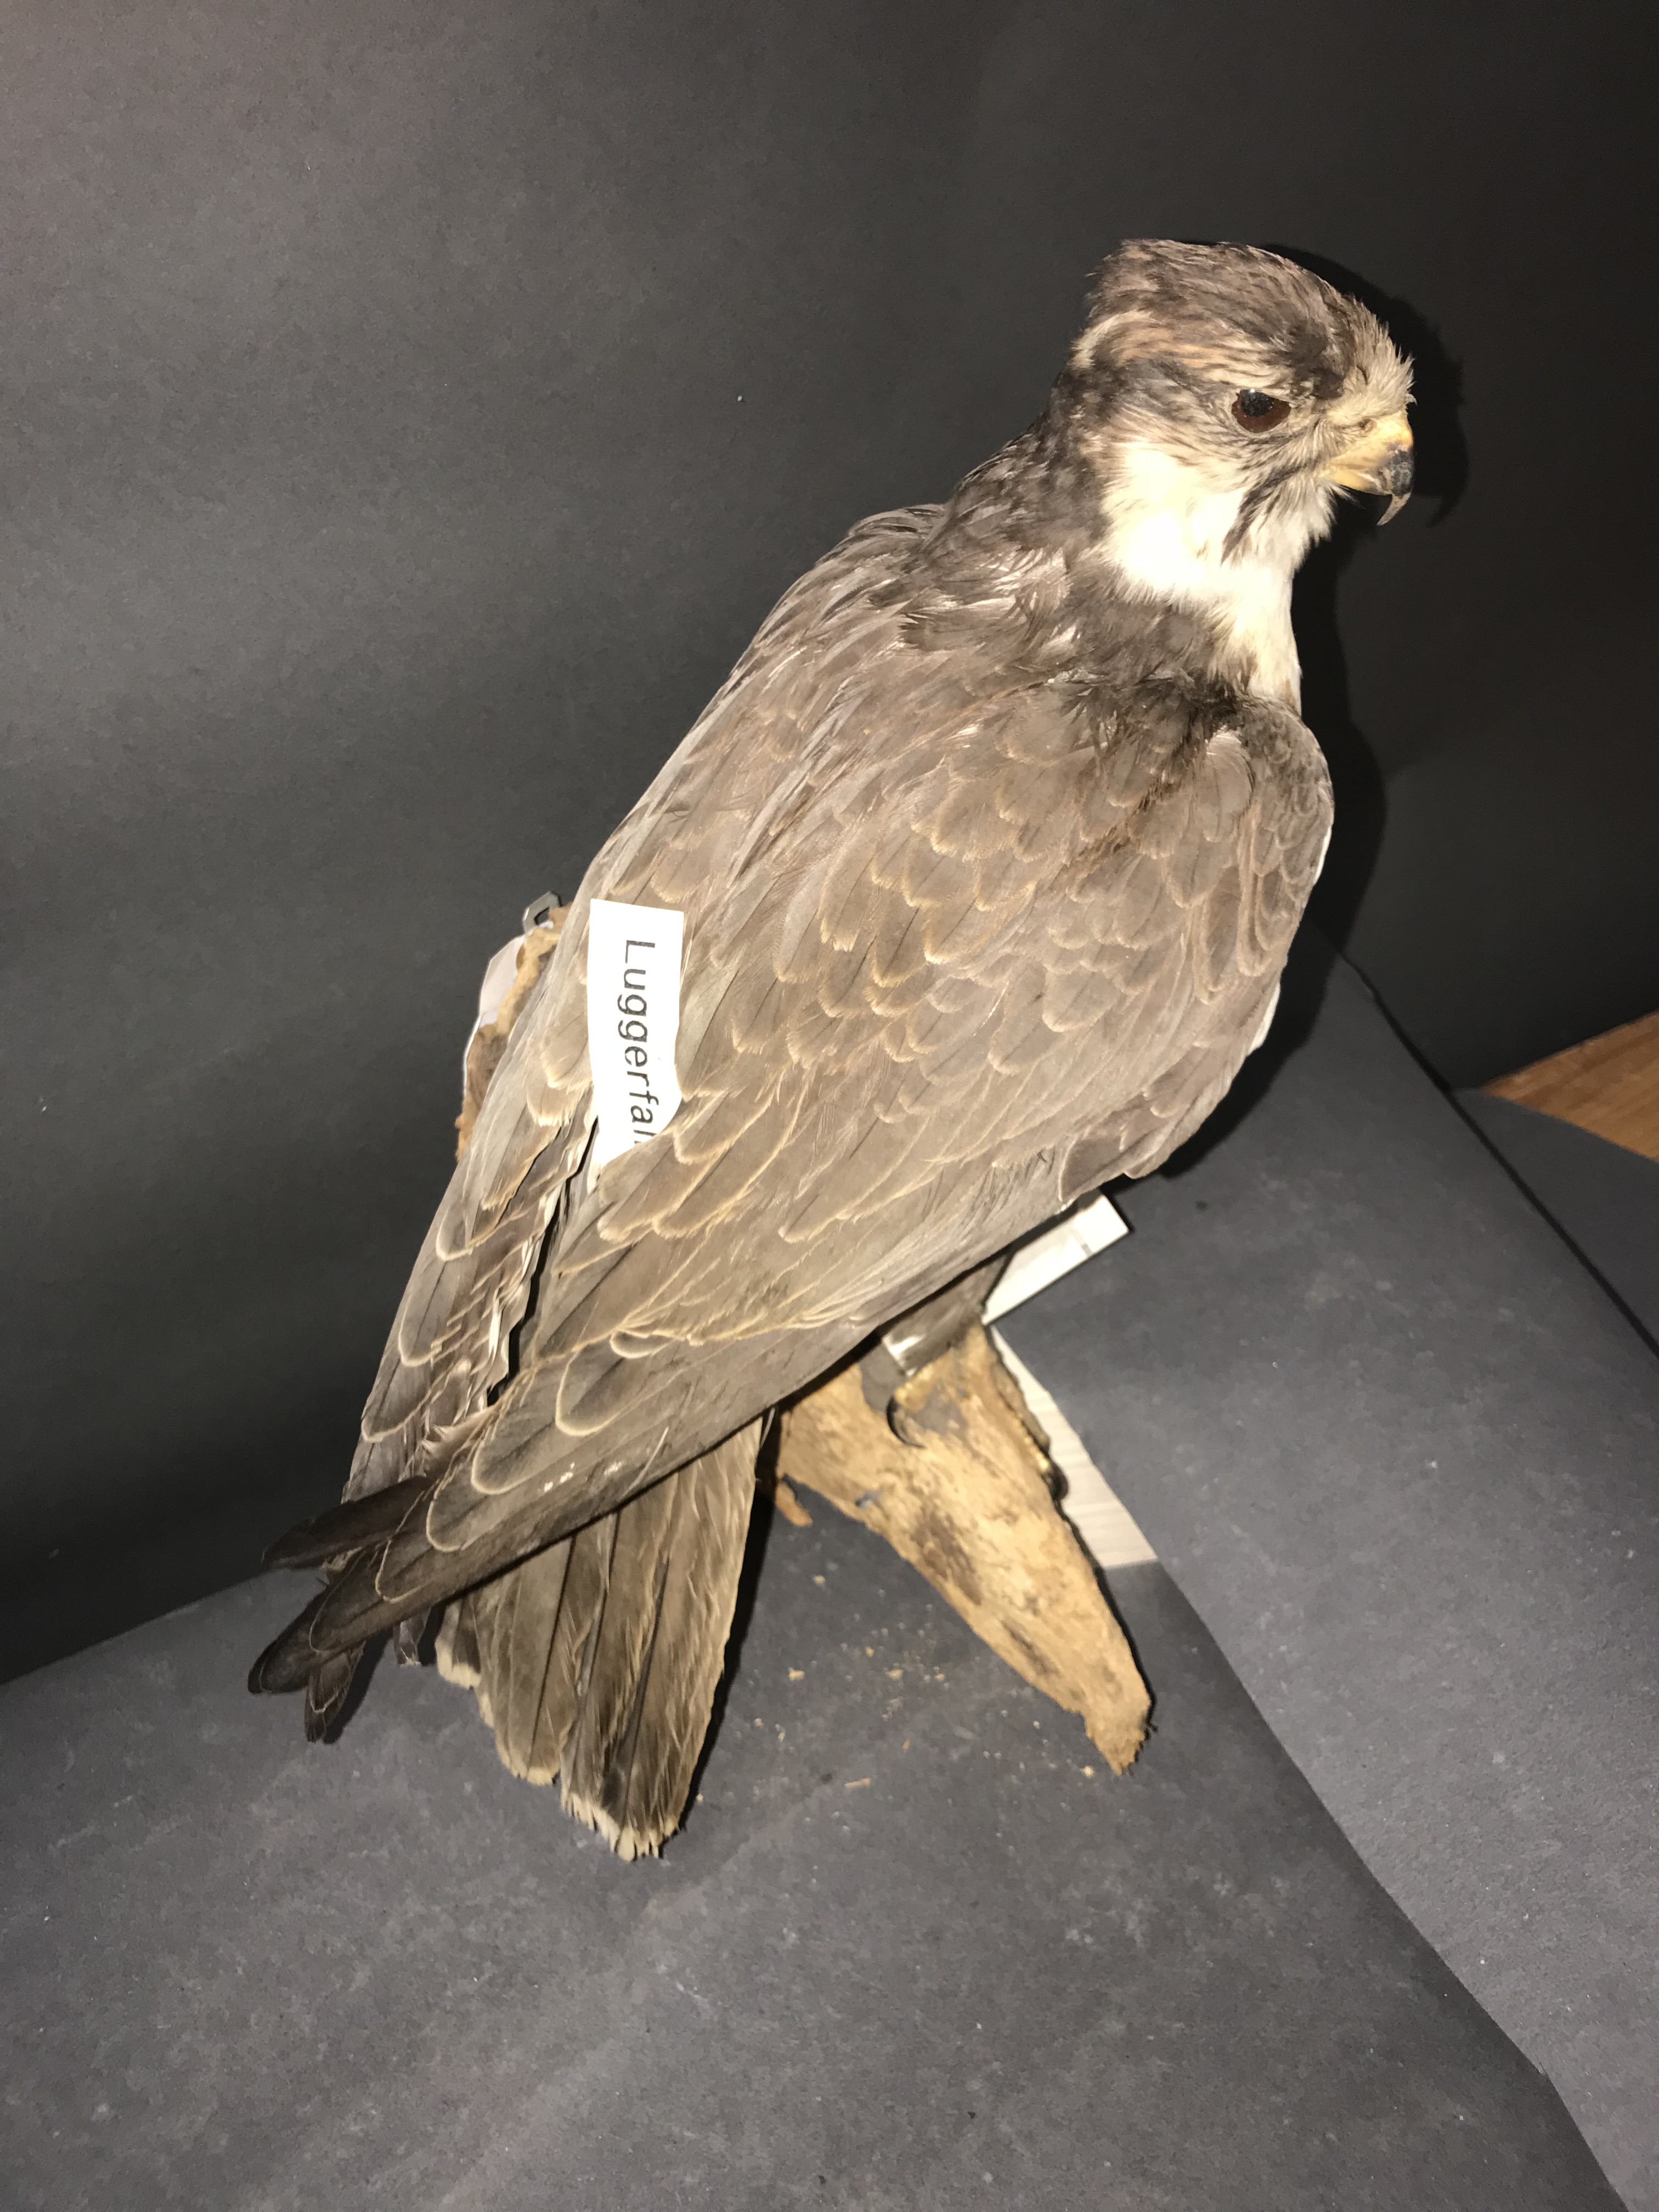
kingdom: Animalia
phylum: Chordata
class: Aves
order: Falconiformes
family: Falconidae
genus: Falco
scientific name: Falco jugger
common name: Laggar falcon
